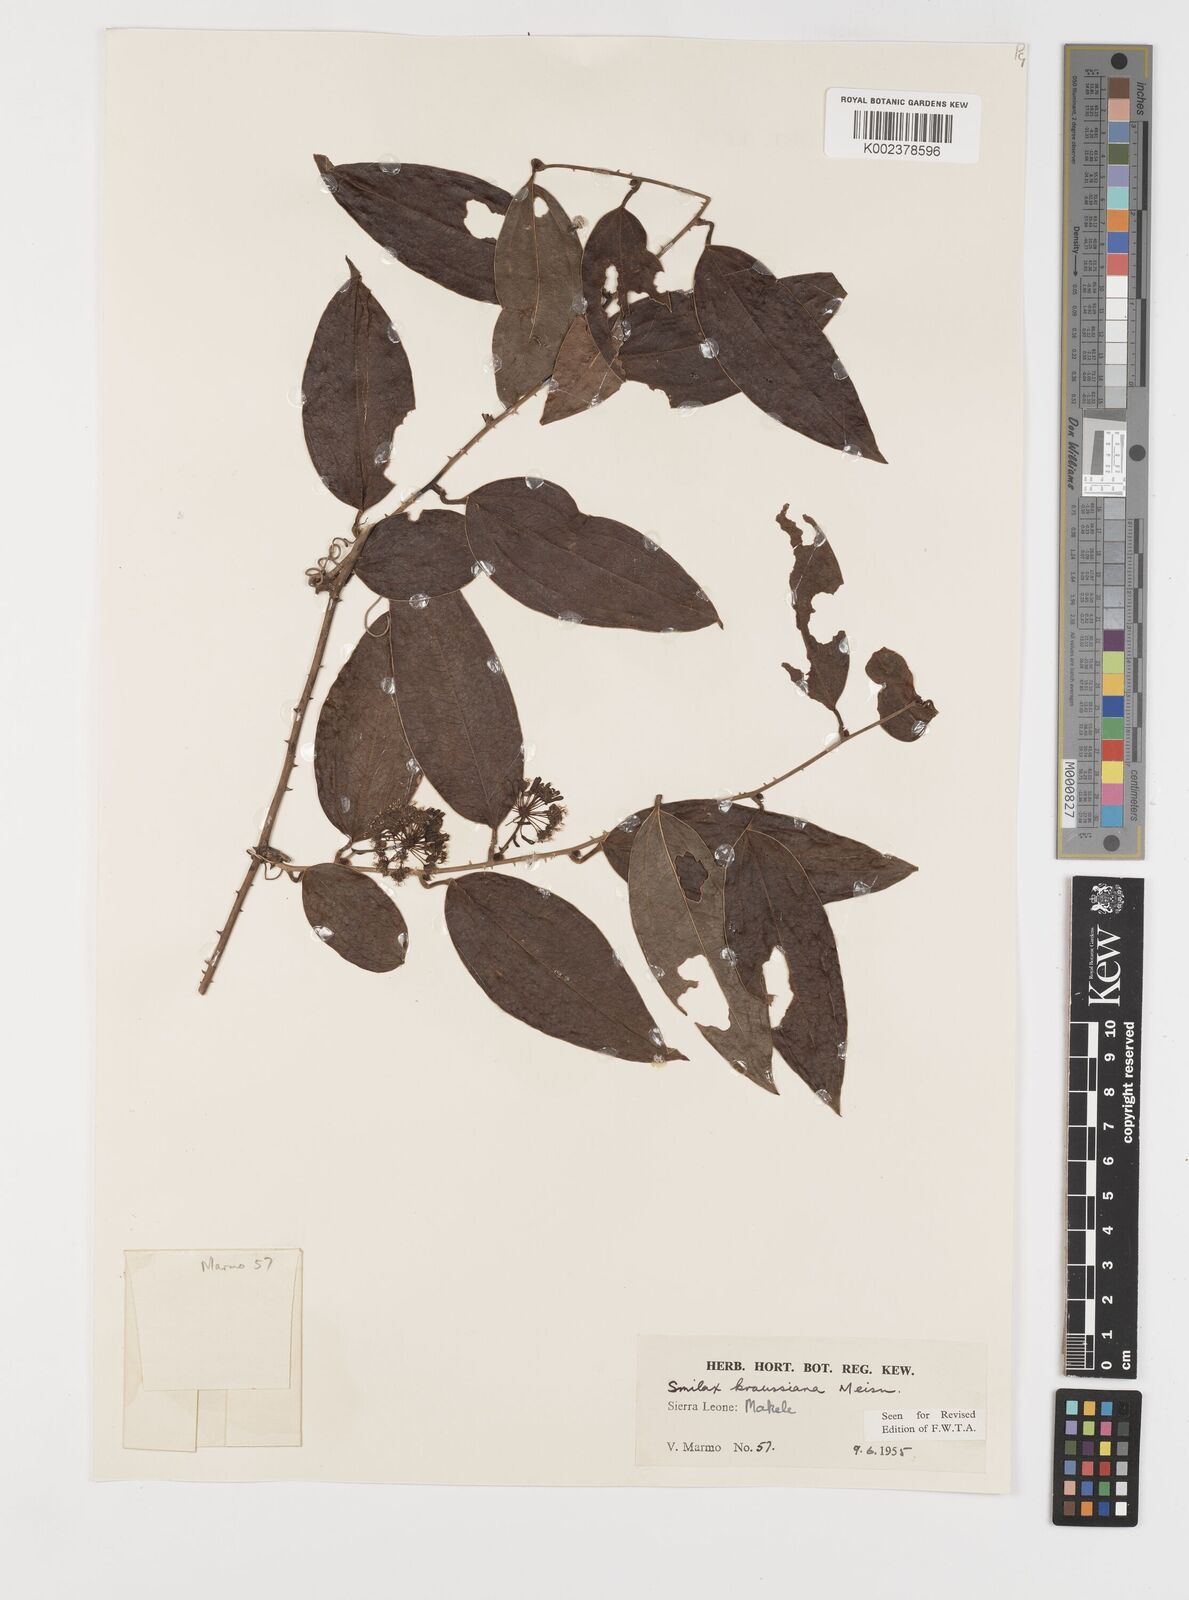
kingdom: Plantae
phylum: Tracheophyta
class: Liliopsida
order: Liliales
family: Smilacaceae
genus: Smilax
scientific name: Smilax anceps
